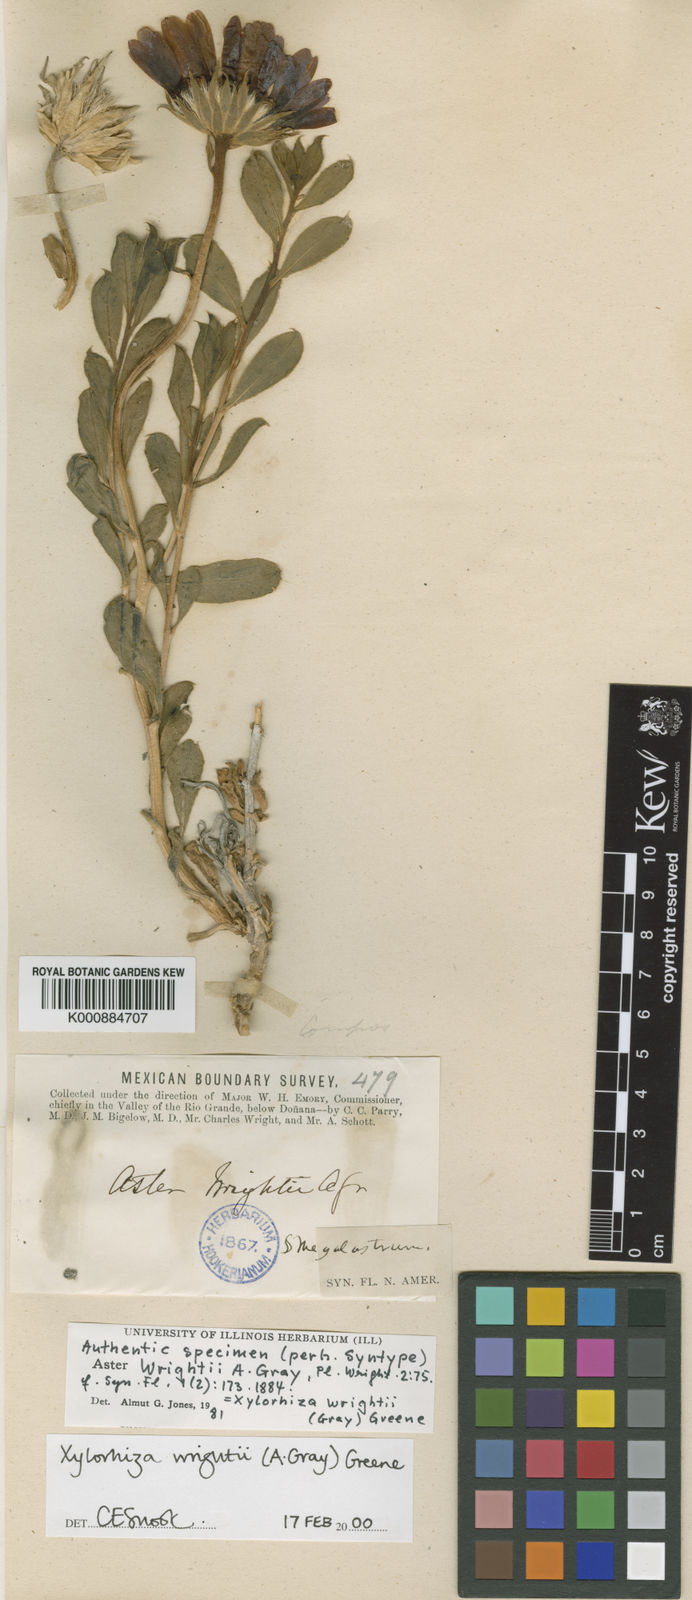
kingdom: Plantae
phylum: Tracheophyta
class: Magnoliopsida
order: Asterales
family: Asteraceae
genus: Xylorhiza
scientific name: Xylorhiza
